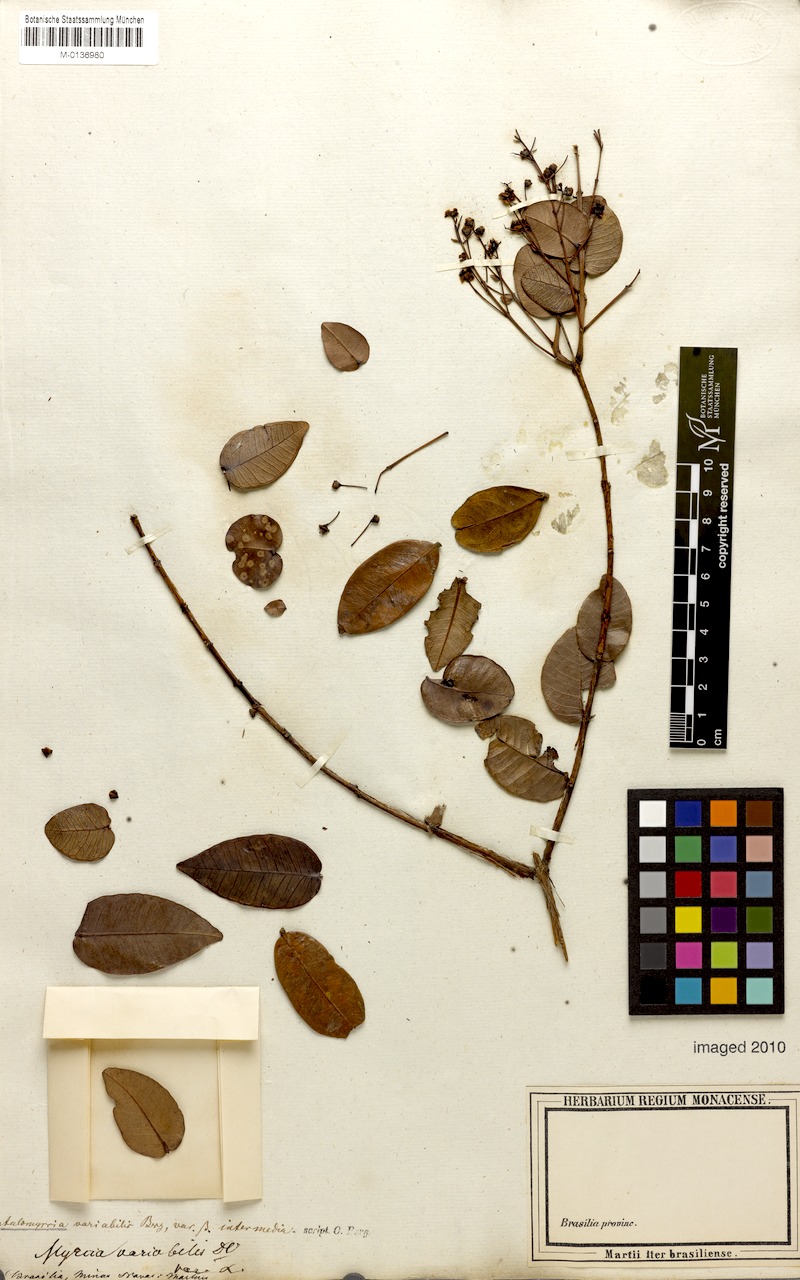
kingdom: Plantae
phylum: Tracheophyta
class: Magnoliopsida
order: Myrtales
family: Myrtaceae
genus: Myrcia
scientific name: Myrcia variabilis
